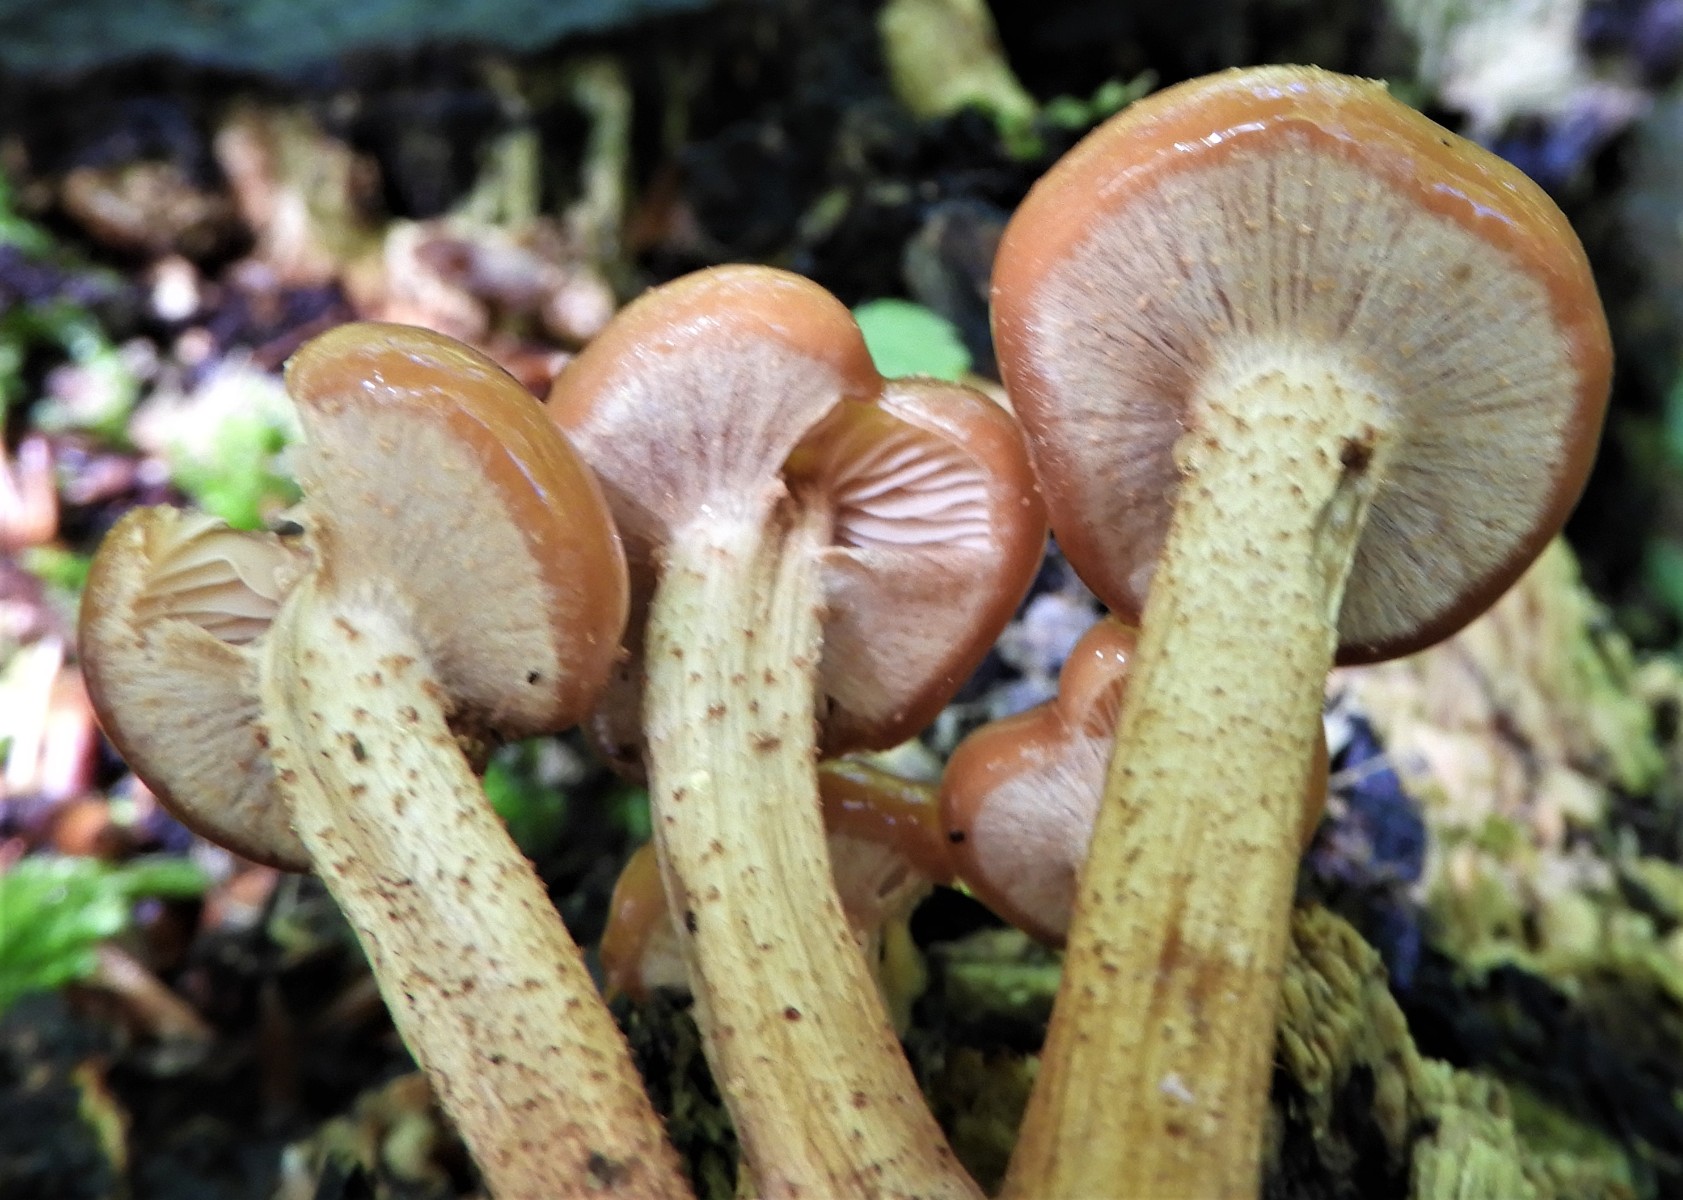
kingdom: Fungi
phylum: Basidiomycota
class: Agaricomycetes
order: Agaricales
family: Strophariaceae
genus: Kuehneromyces
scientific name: Kuehneromyces mutabilis
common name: foranderlig skælhat
